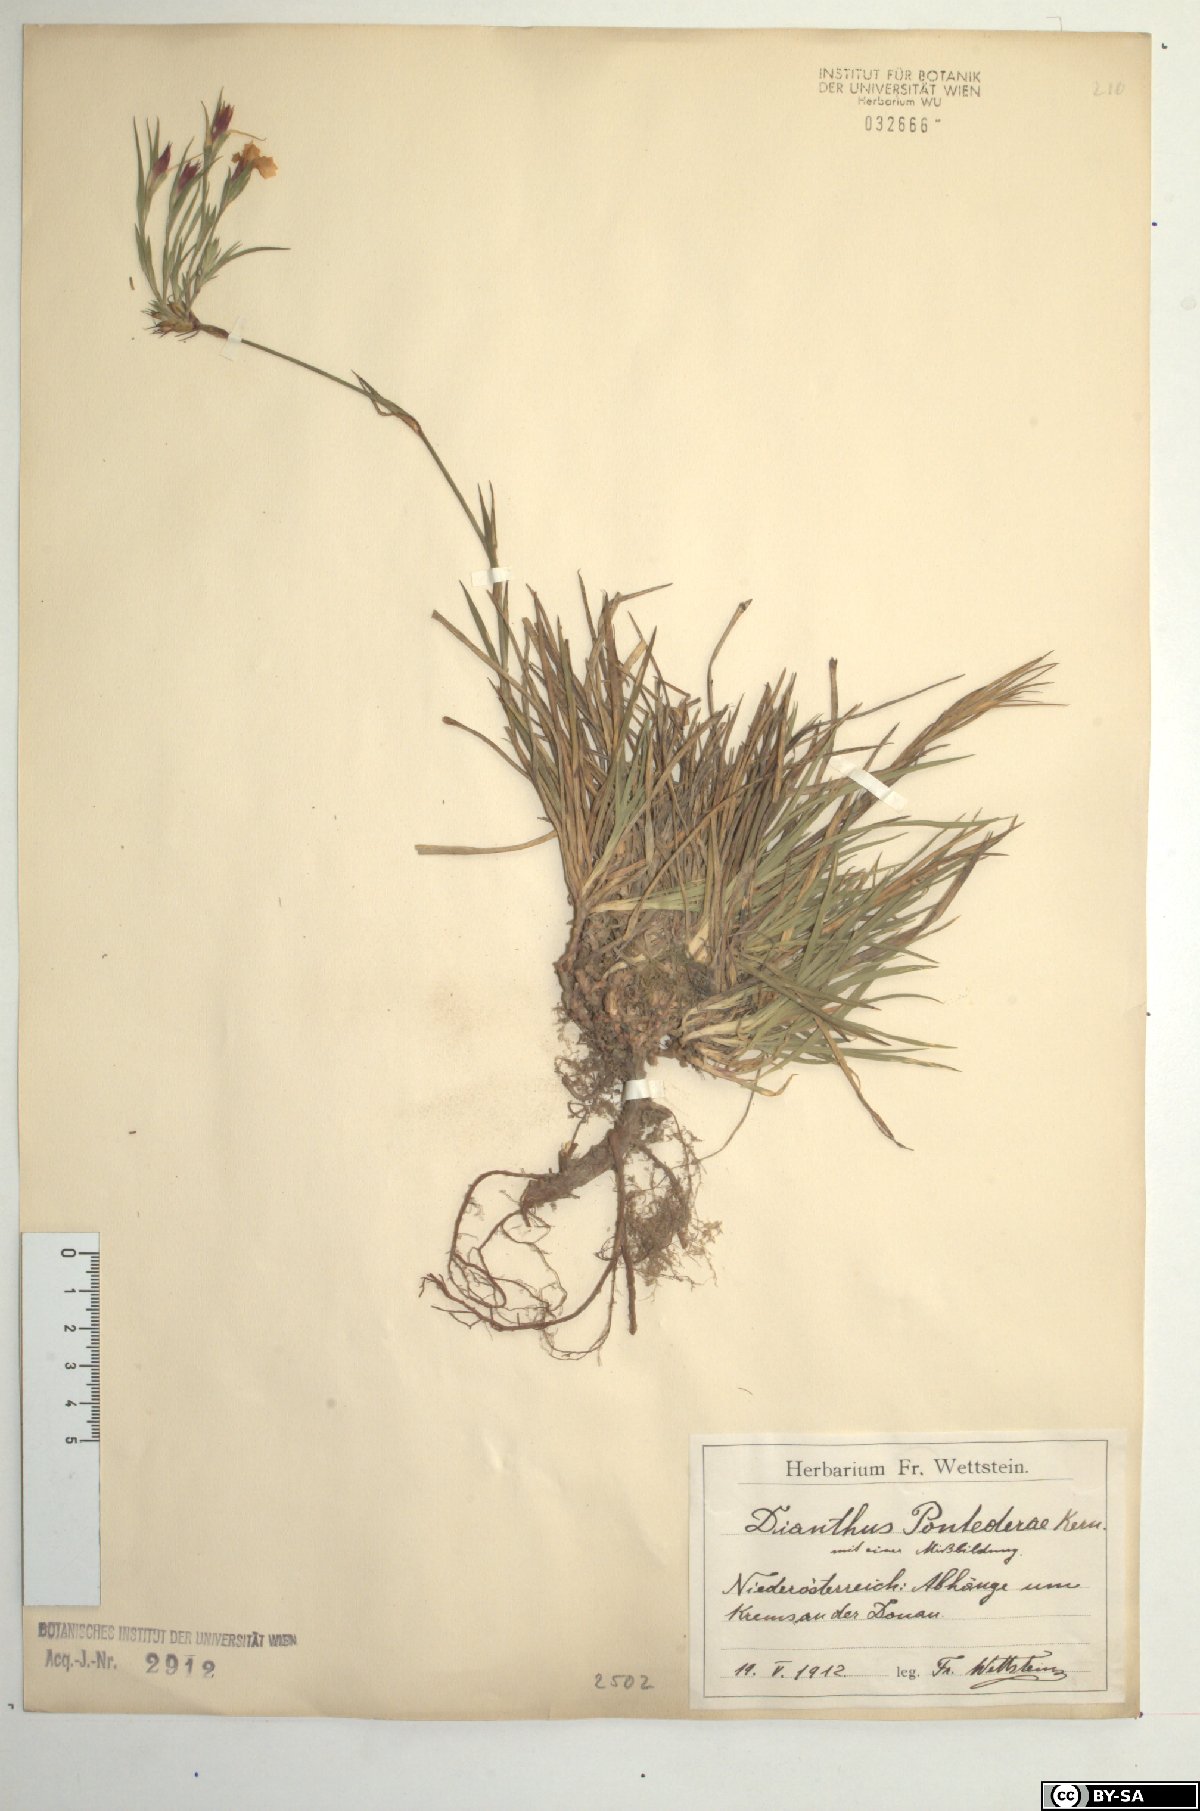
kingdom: Plantae
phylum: Tracheophyta
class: Magnoliopsida
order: Caryophyllales
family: Caryophyllaceae
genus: Dianthus
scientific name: Dianthus pontederae
